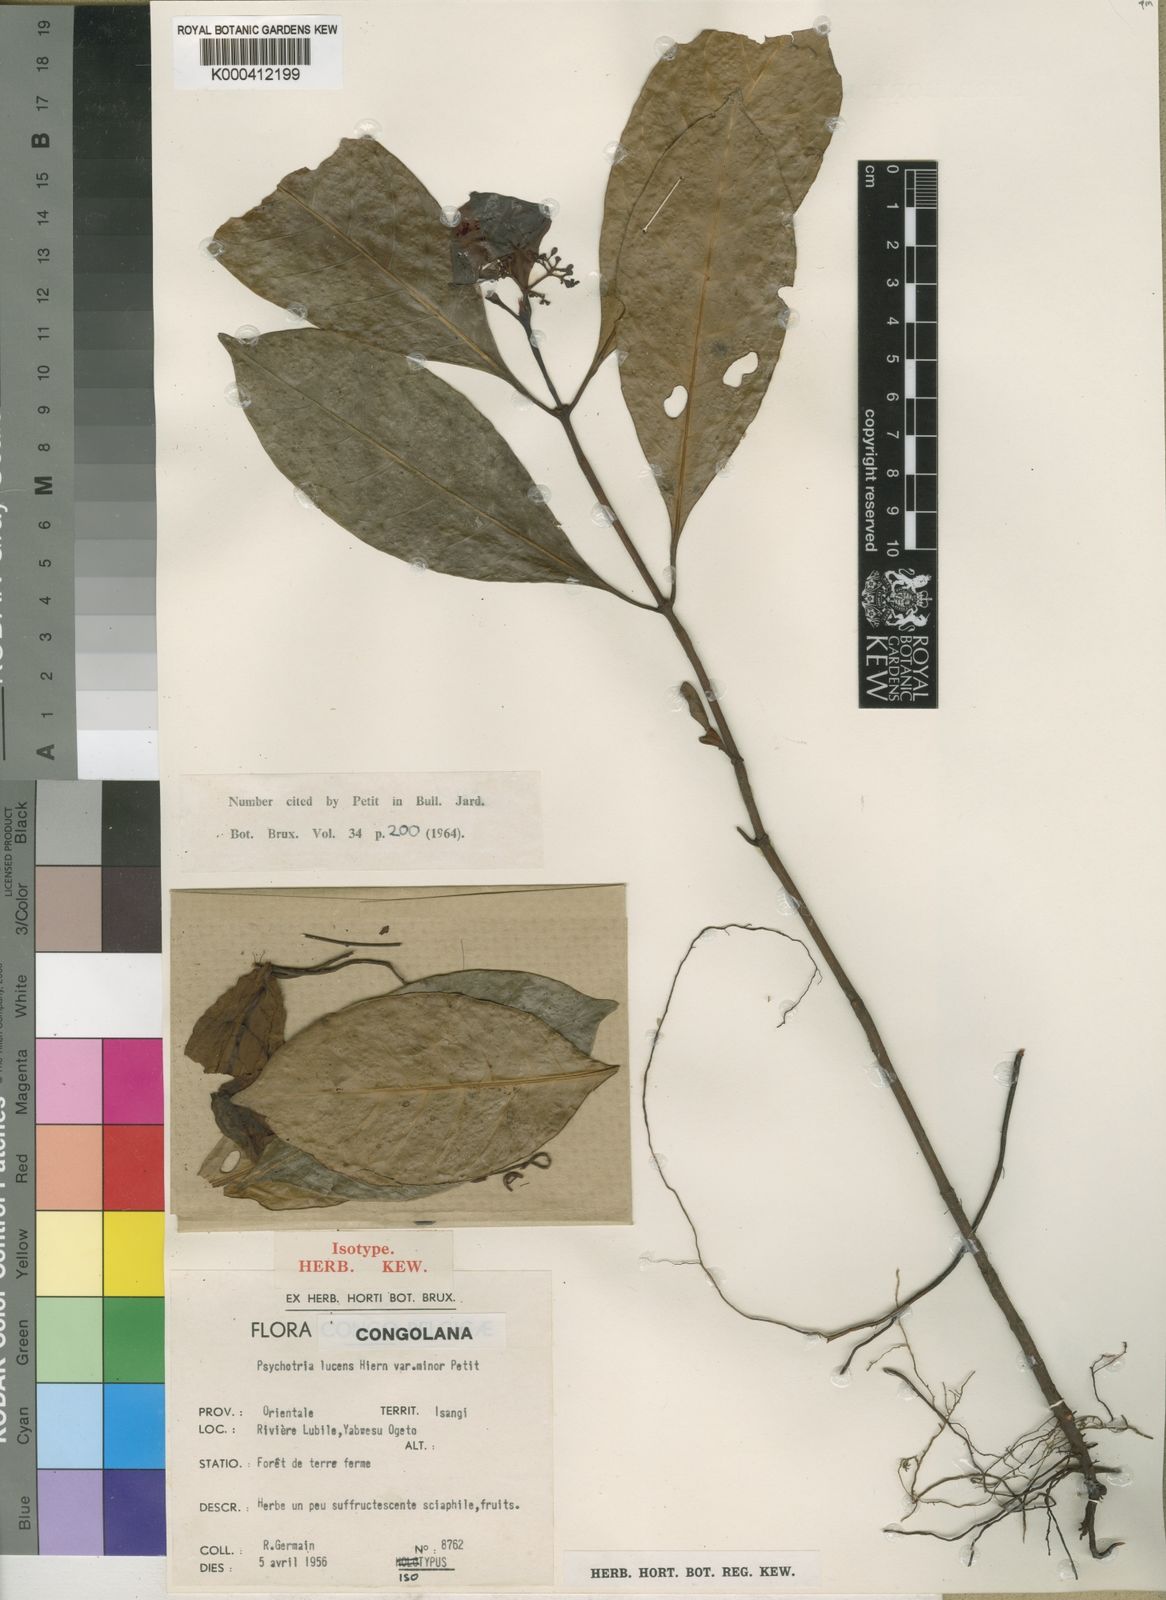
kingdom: Plantae
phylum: Tracheophyta
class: Magnoliopsida
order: Gentianales
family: Rubiaceae
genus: Psychotria
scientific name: Psychotria lucens
